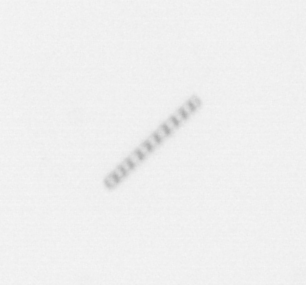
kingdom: Chromista
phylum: Ochrophyta
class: Bacillariophyceae
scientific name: Bacillariophyceae
